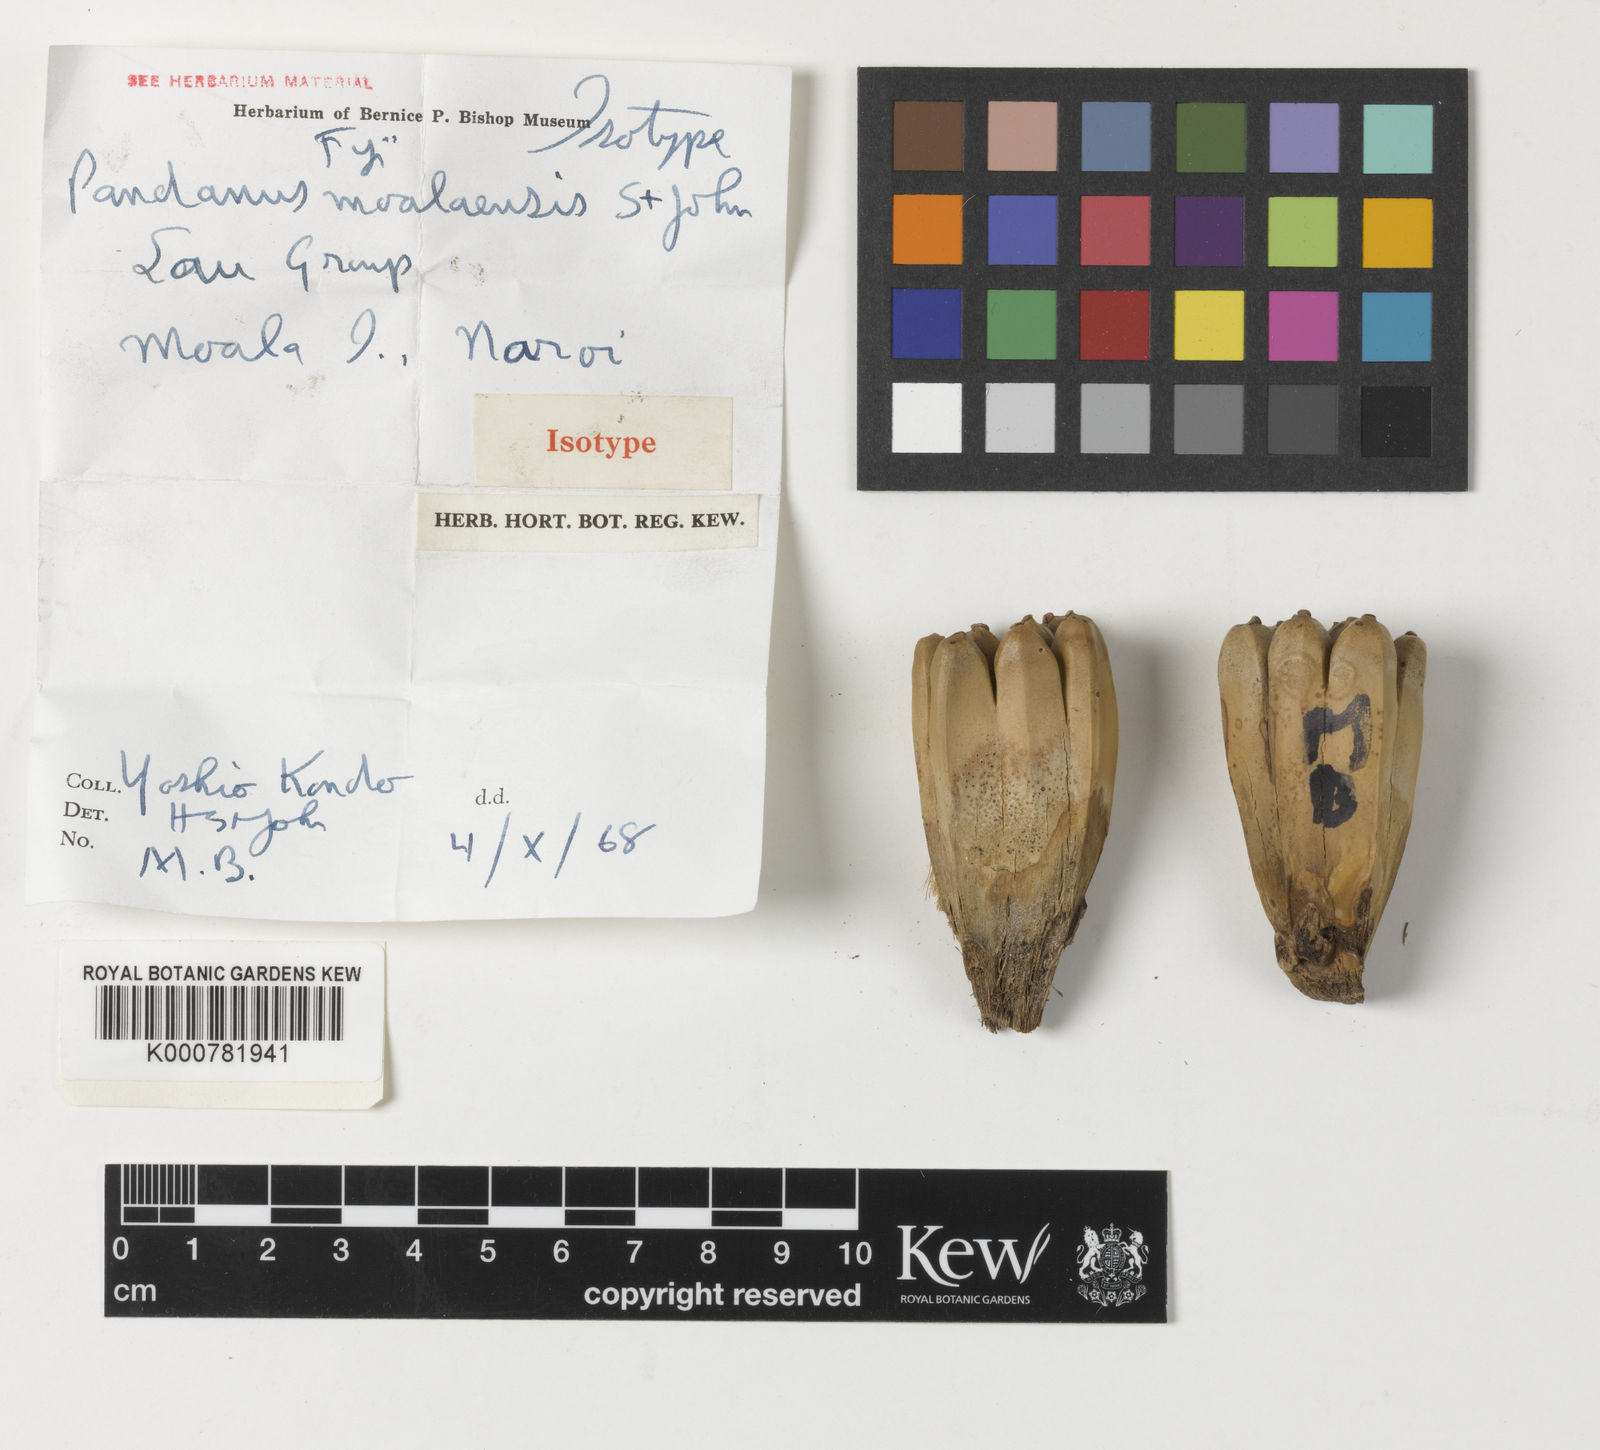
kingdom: Plantae
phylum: Tracheophyta
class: Liliopsida
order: Pandanales
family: Pandanaceae
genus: Pandanus
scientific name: Pandanus moalaensis
